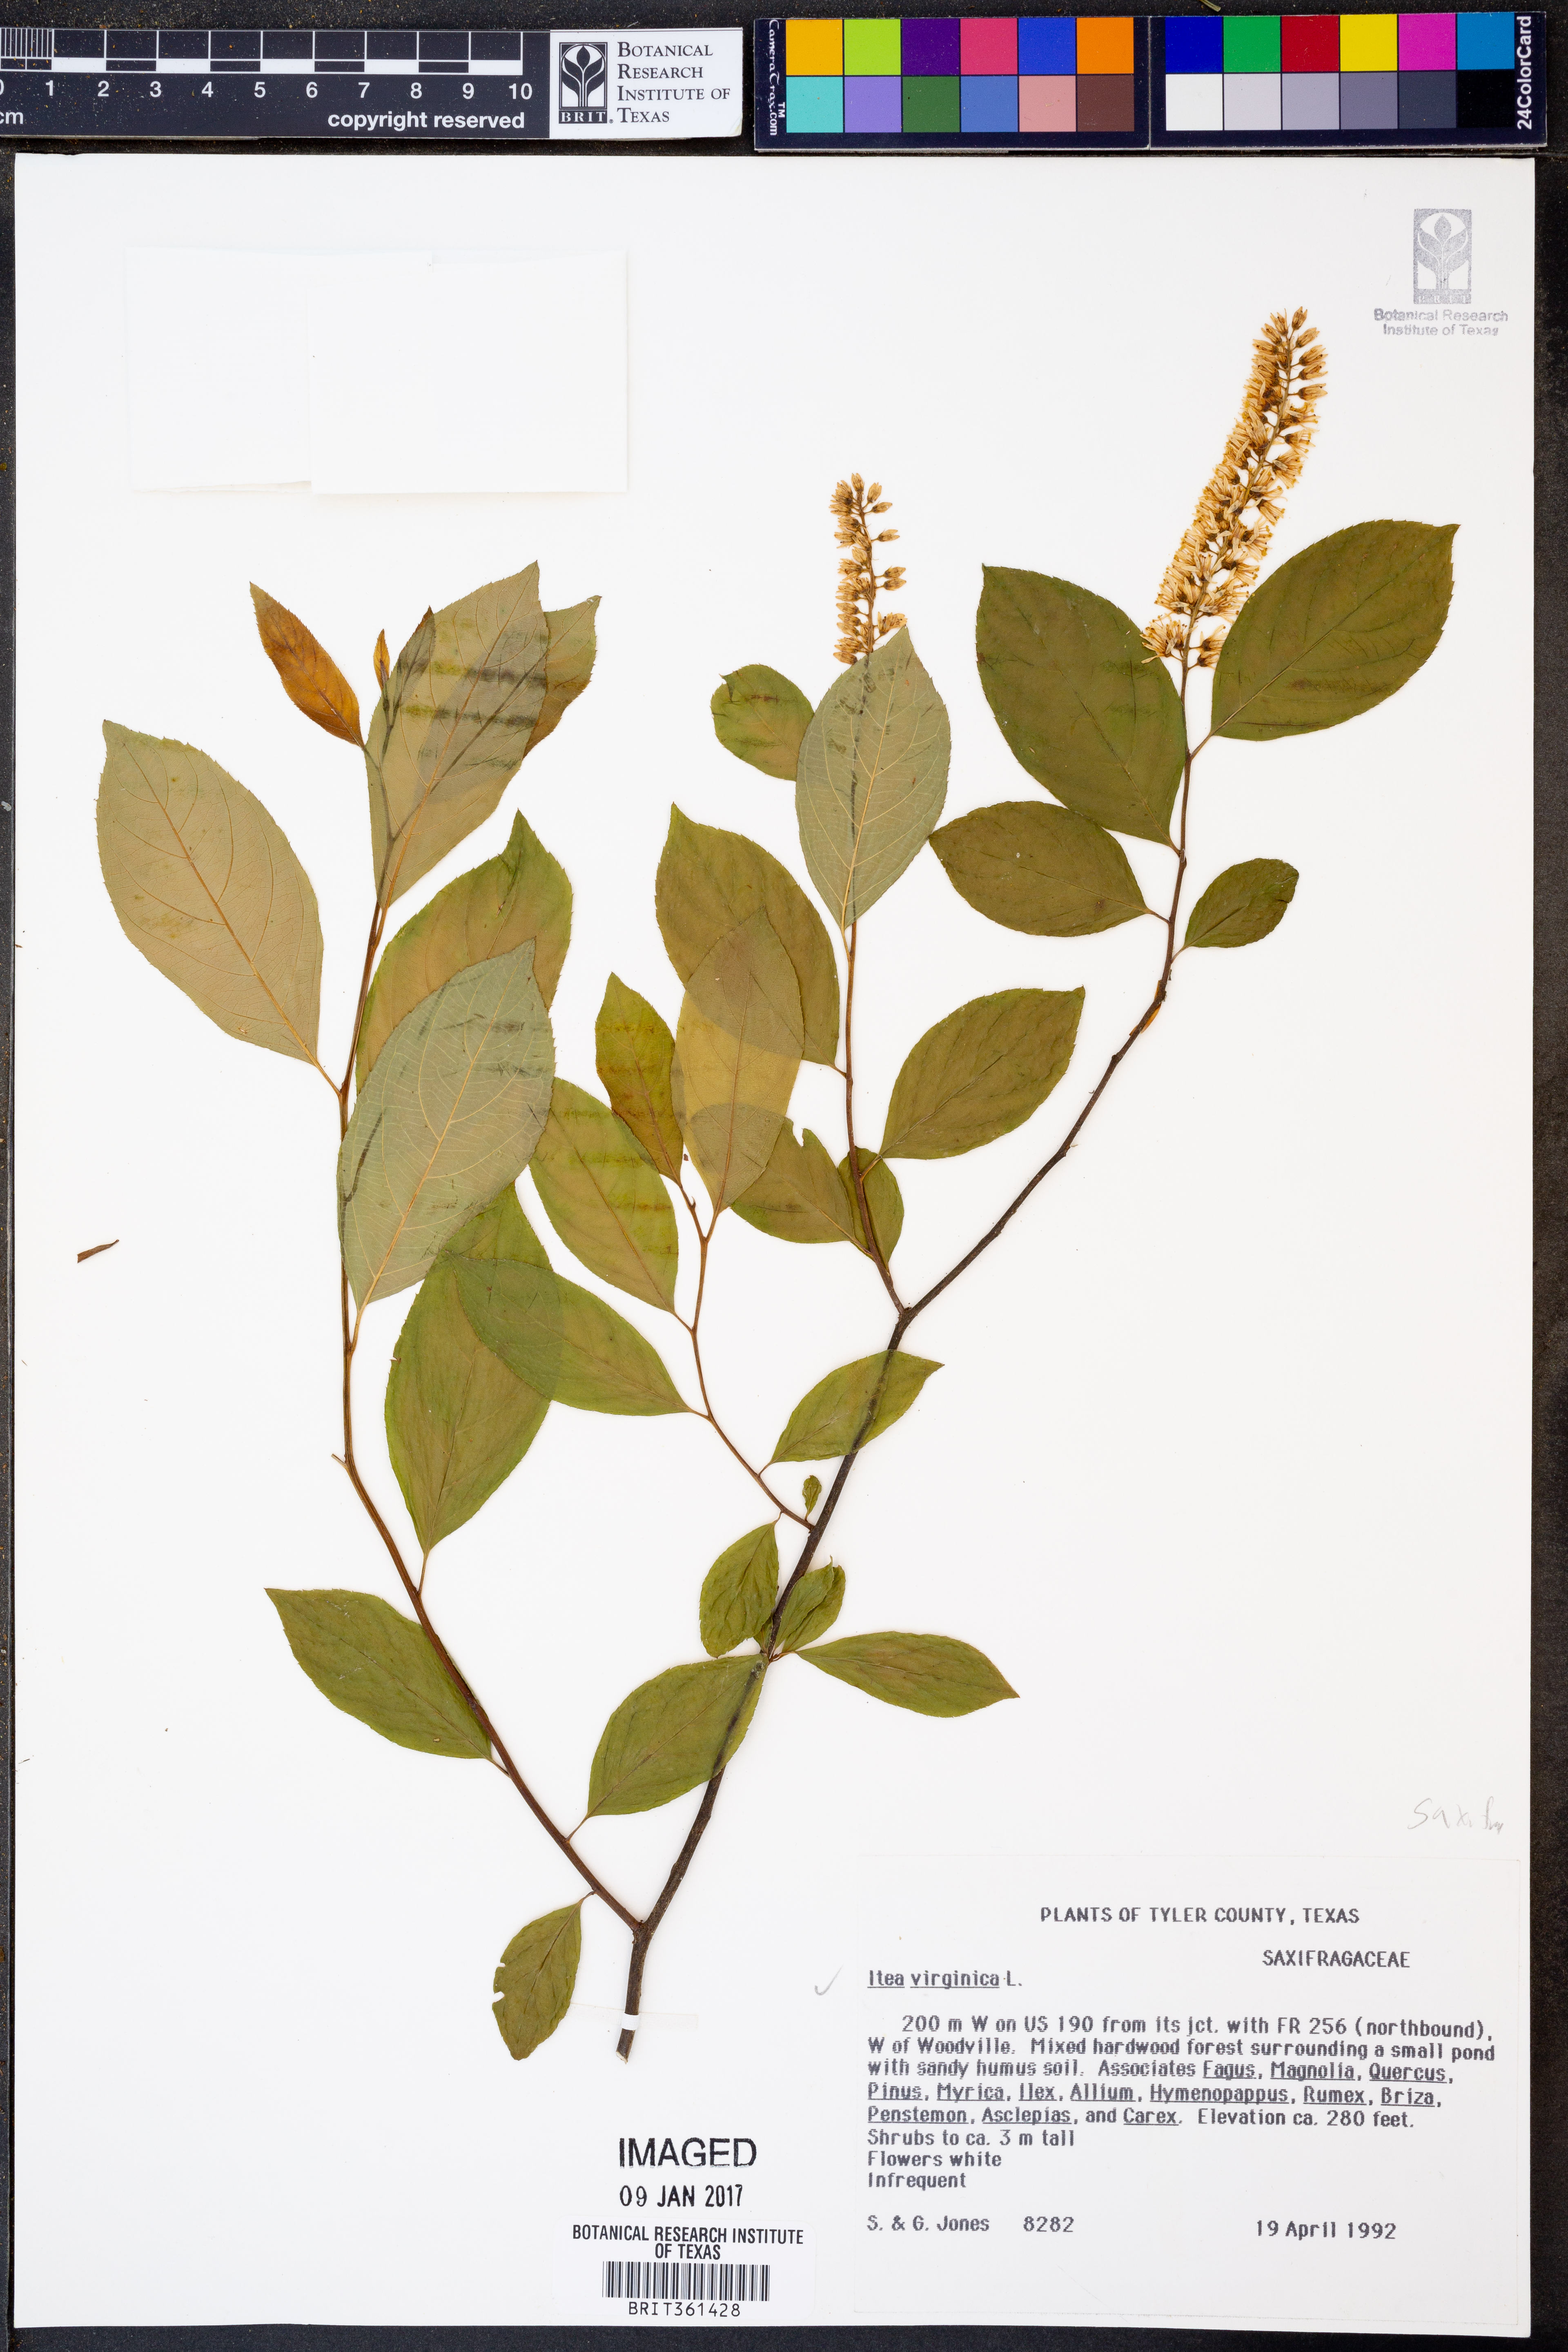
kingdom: Plantae
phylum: Tracheophyta
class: Magnoliopsida
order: Saxifragales
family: Iteaceae
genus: Itea
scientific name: Itea virginica
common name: Sweetspire
